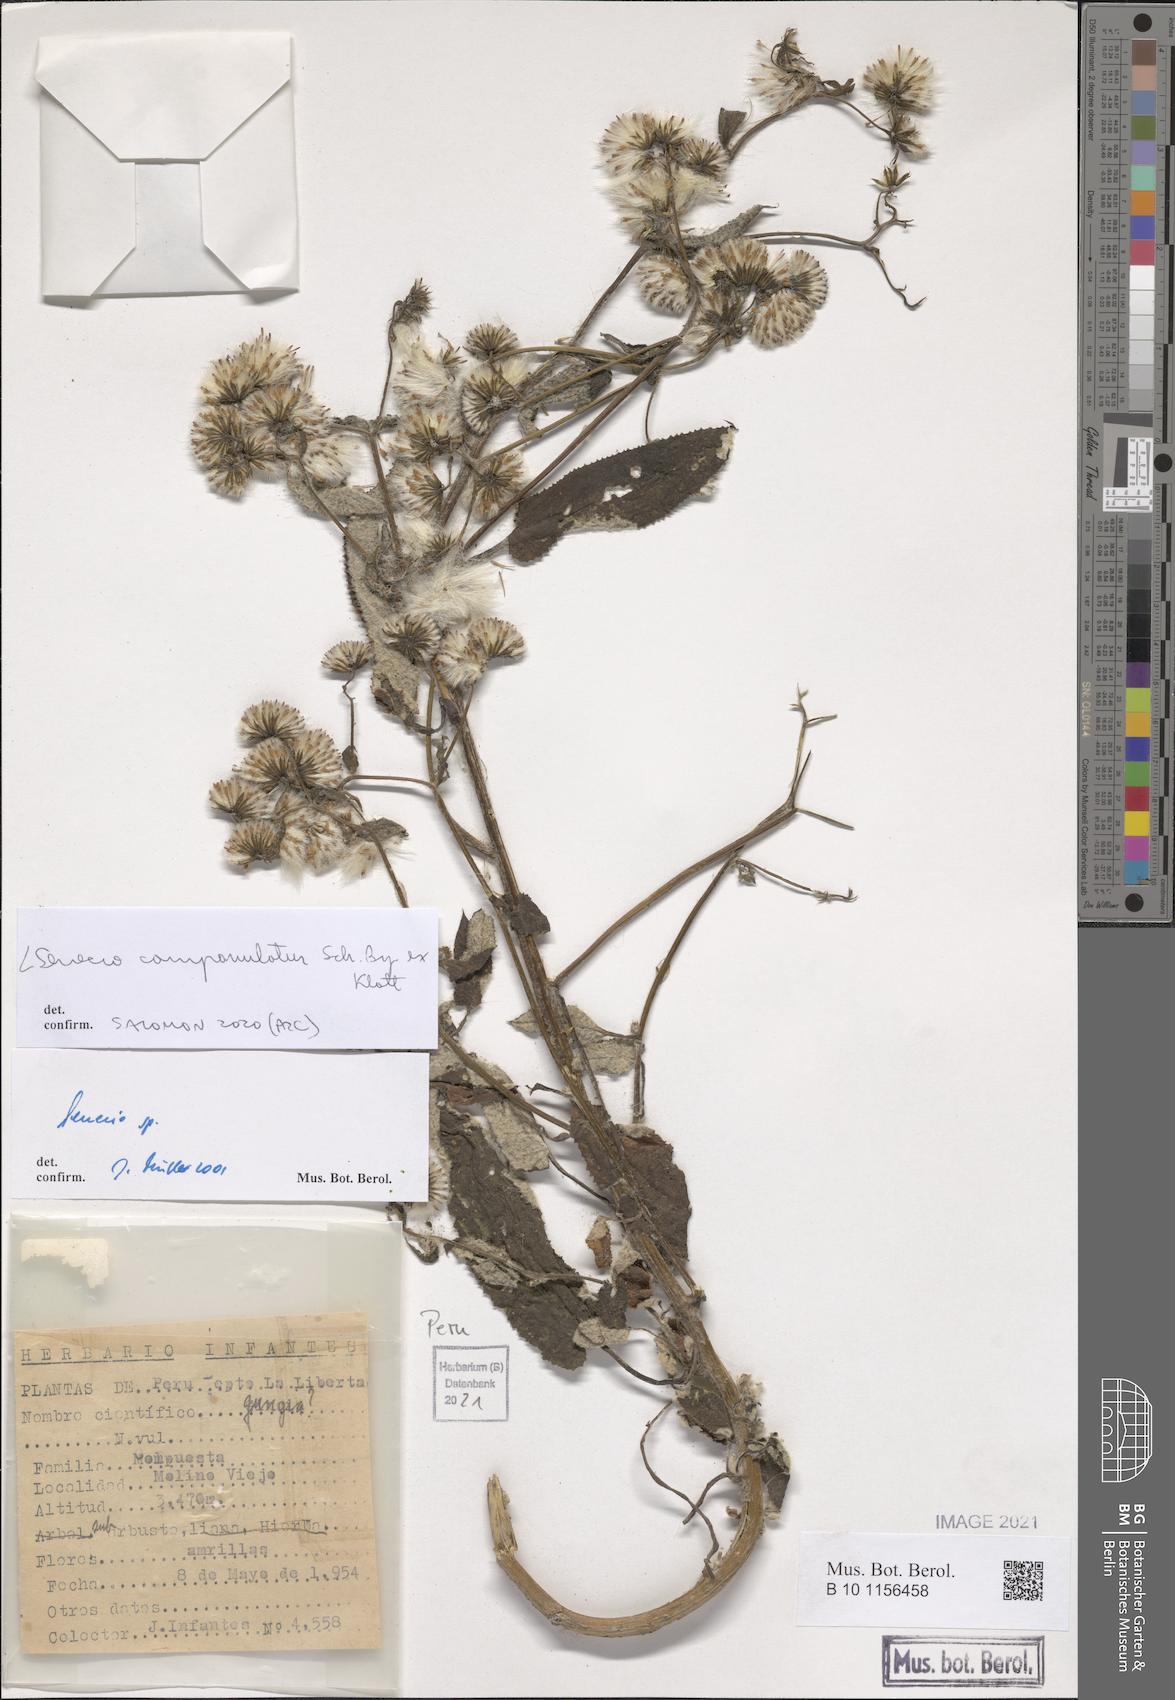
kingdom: Plantae
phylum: Tracheophyta
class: Magnoliopsida
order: Asterales
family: Asteraceae
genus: Aetheolaena
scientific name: Aetheolaena betonicifolia
